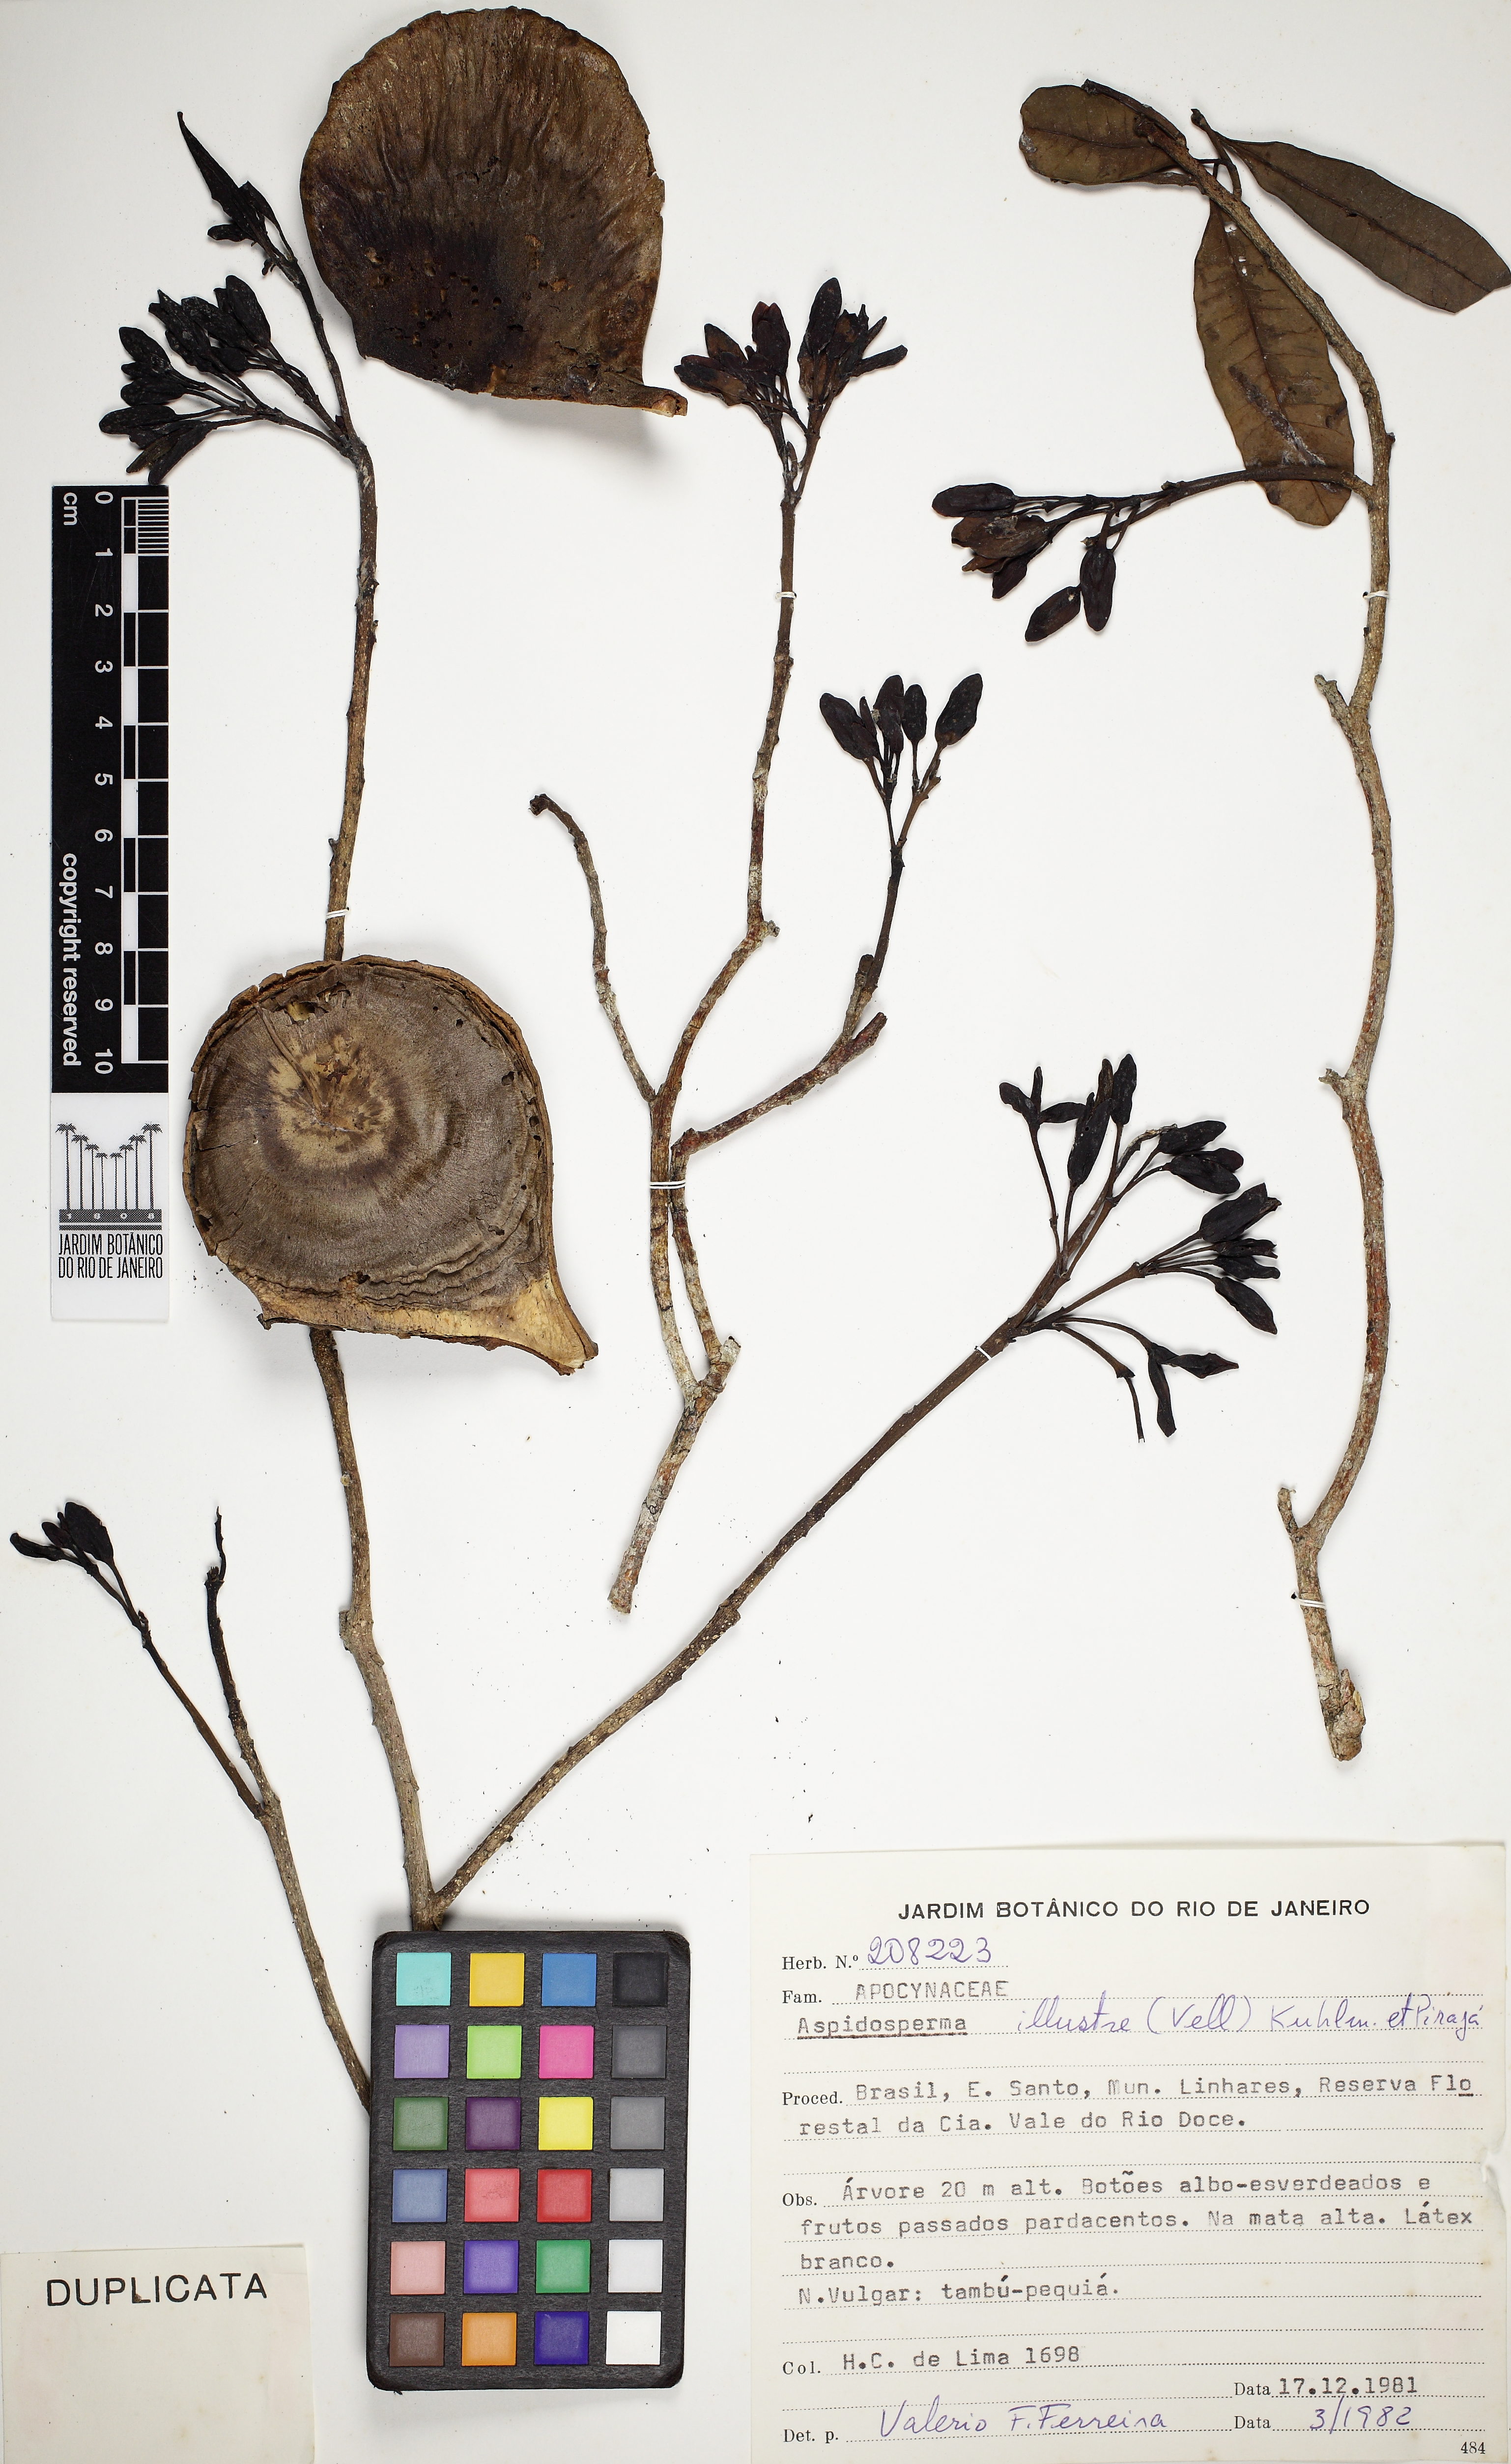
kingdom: Plantae
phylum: Tracheophyta
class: Magnoliopsida
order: Gentianales
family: Apocynaceae
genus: Aspidosperma
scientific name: Aspidosperma illustre
